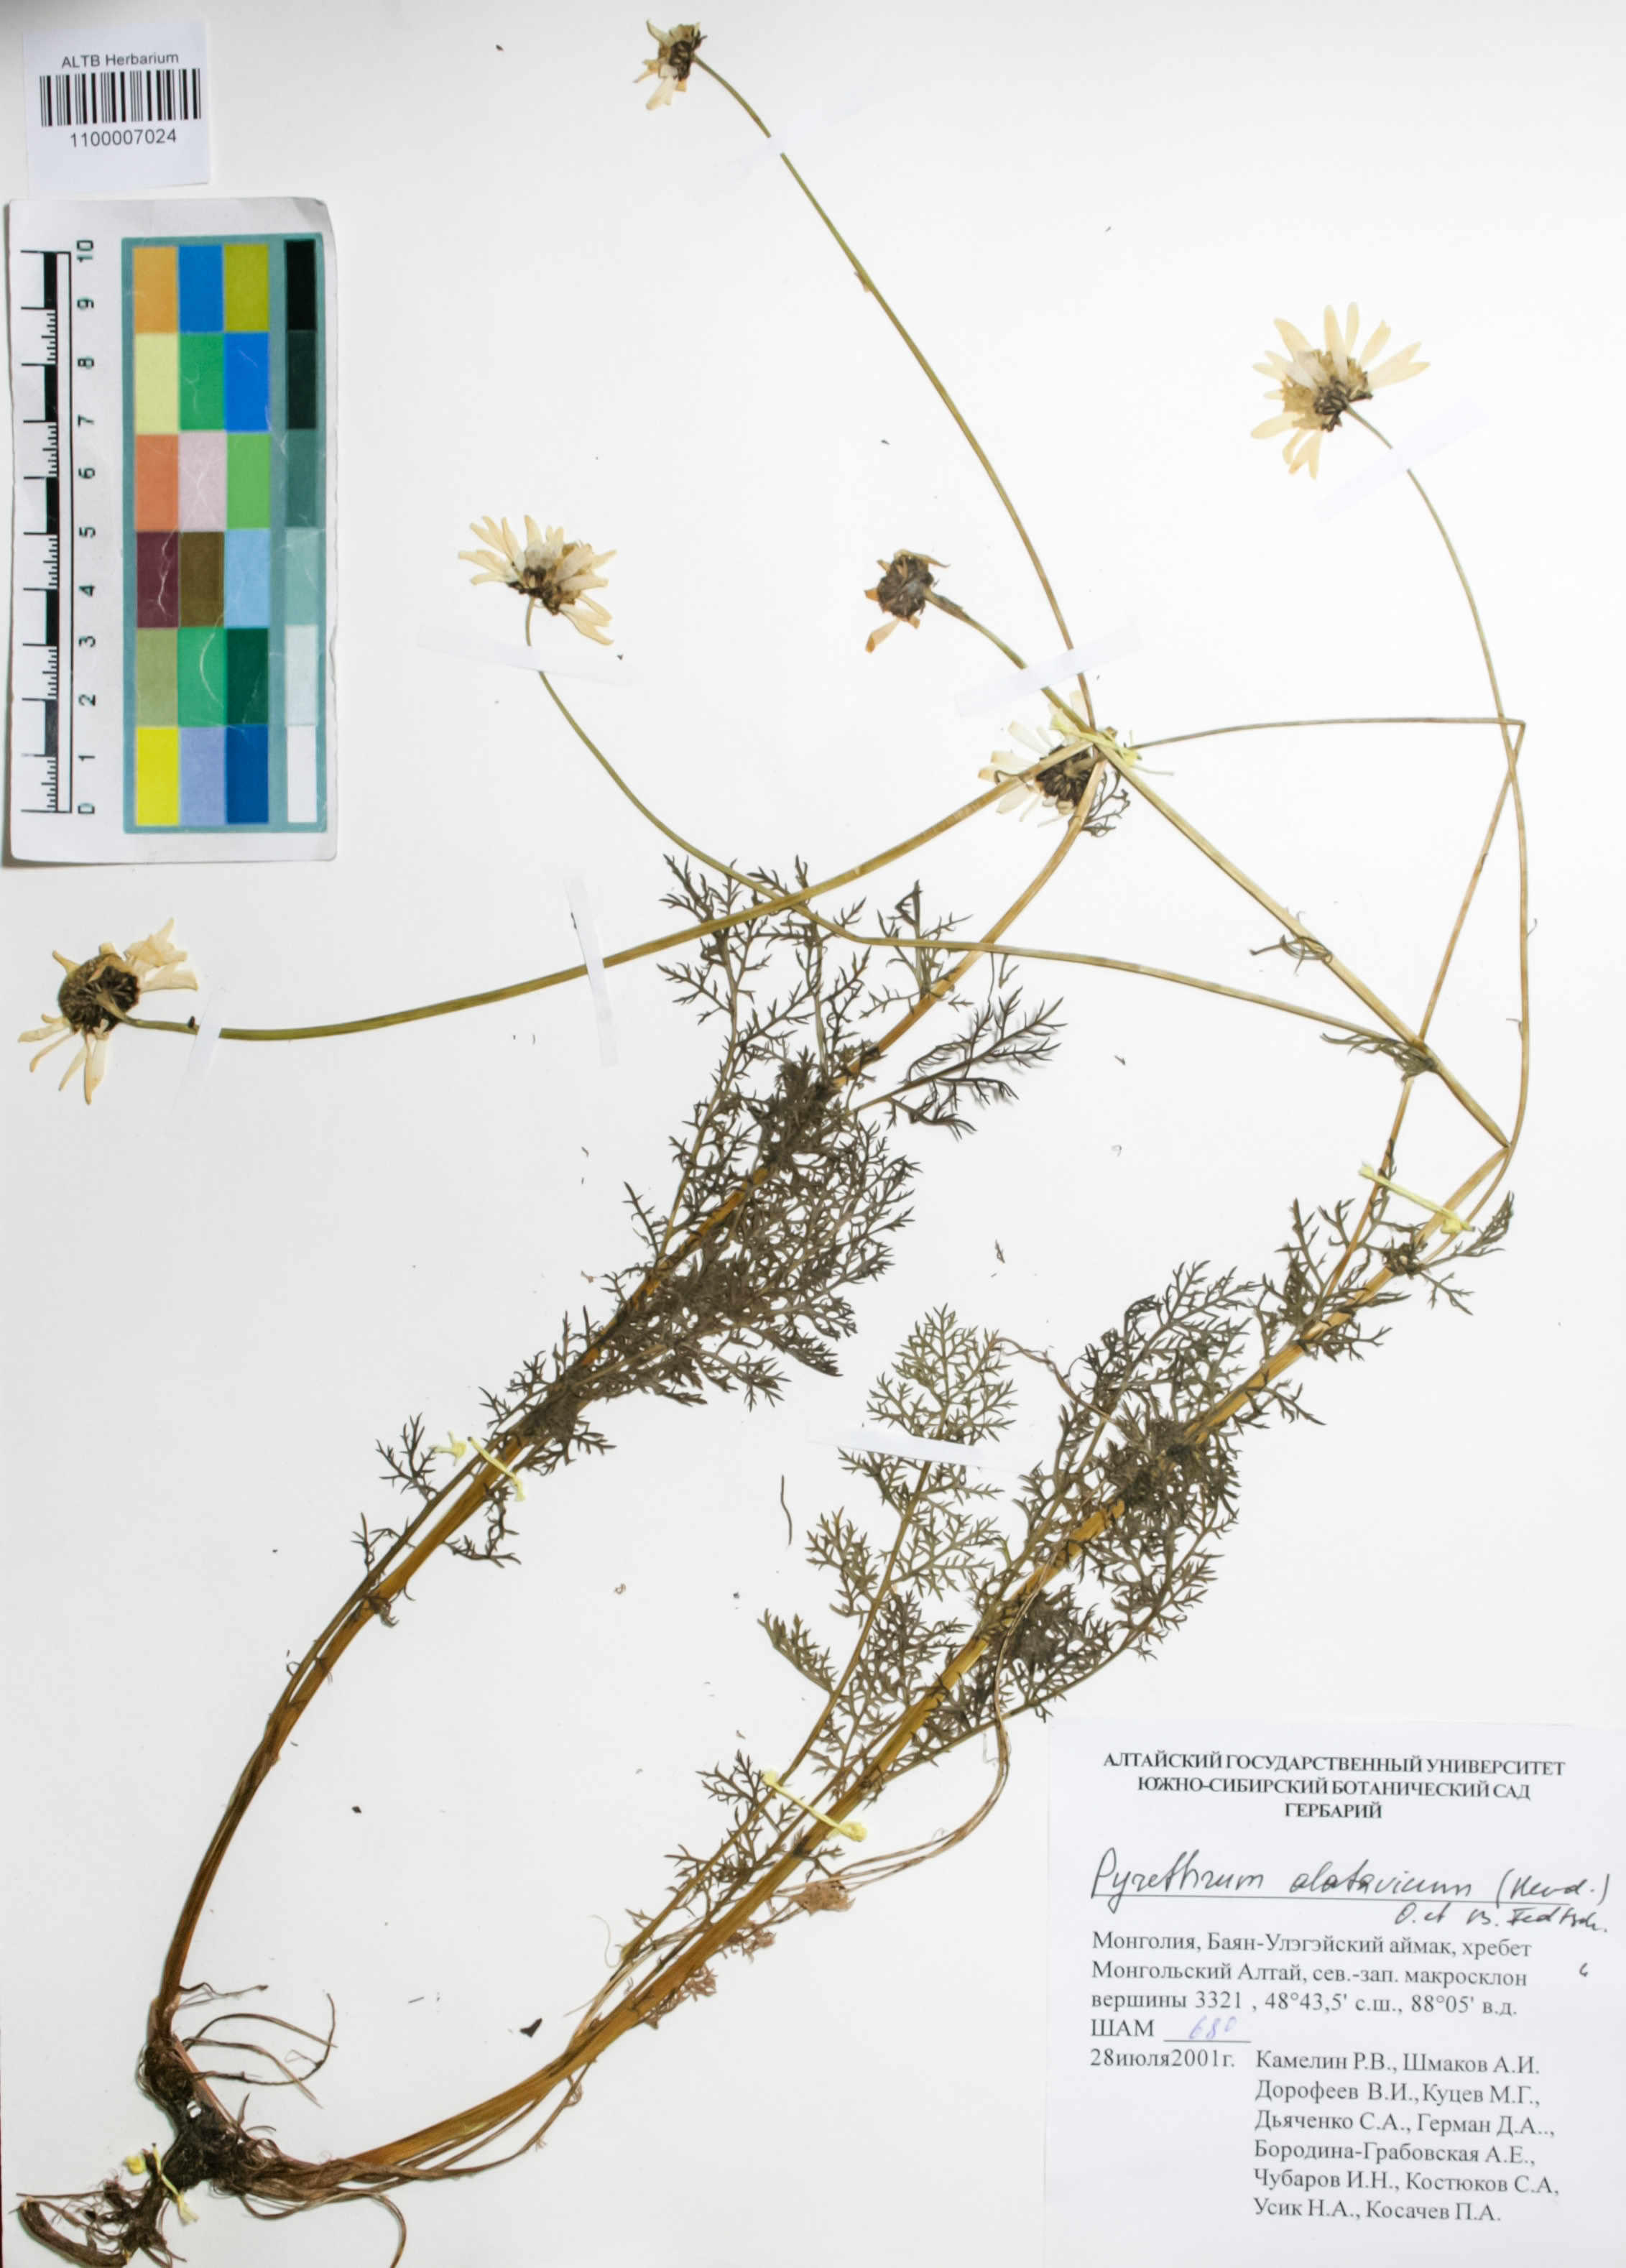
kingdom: Plantae
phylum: Tracheophyta
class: Magnoliopsida
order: Asterales
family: Asteraceae
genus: Tanacetum
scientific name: Tanacetum alatavicum
